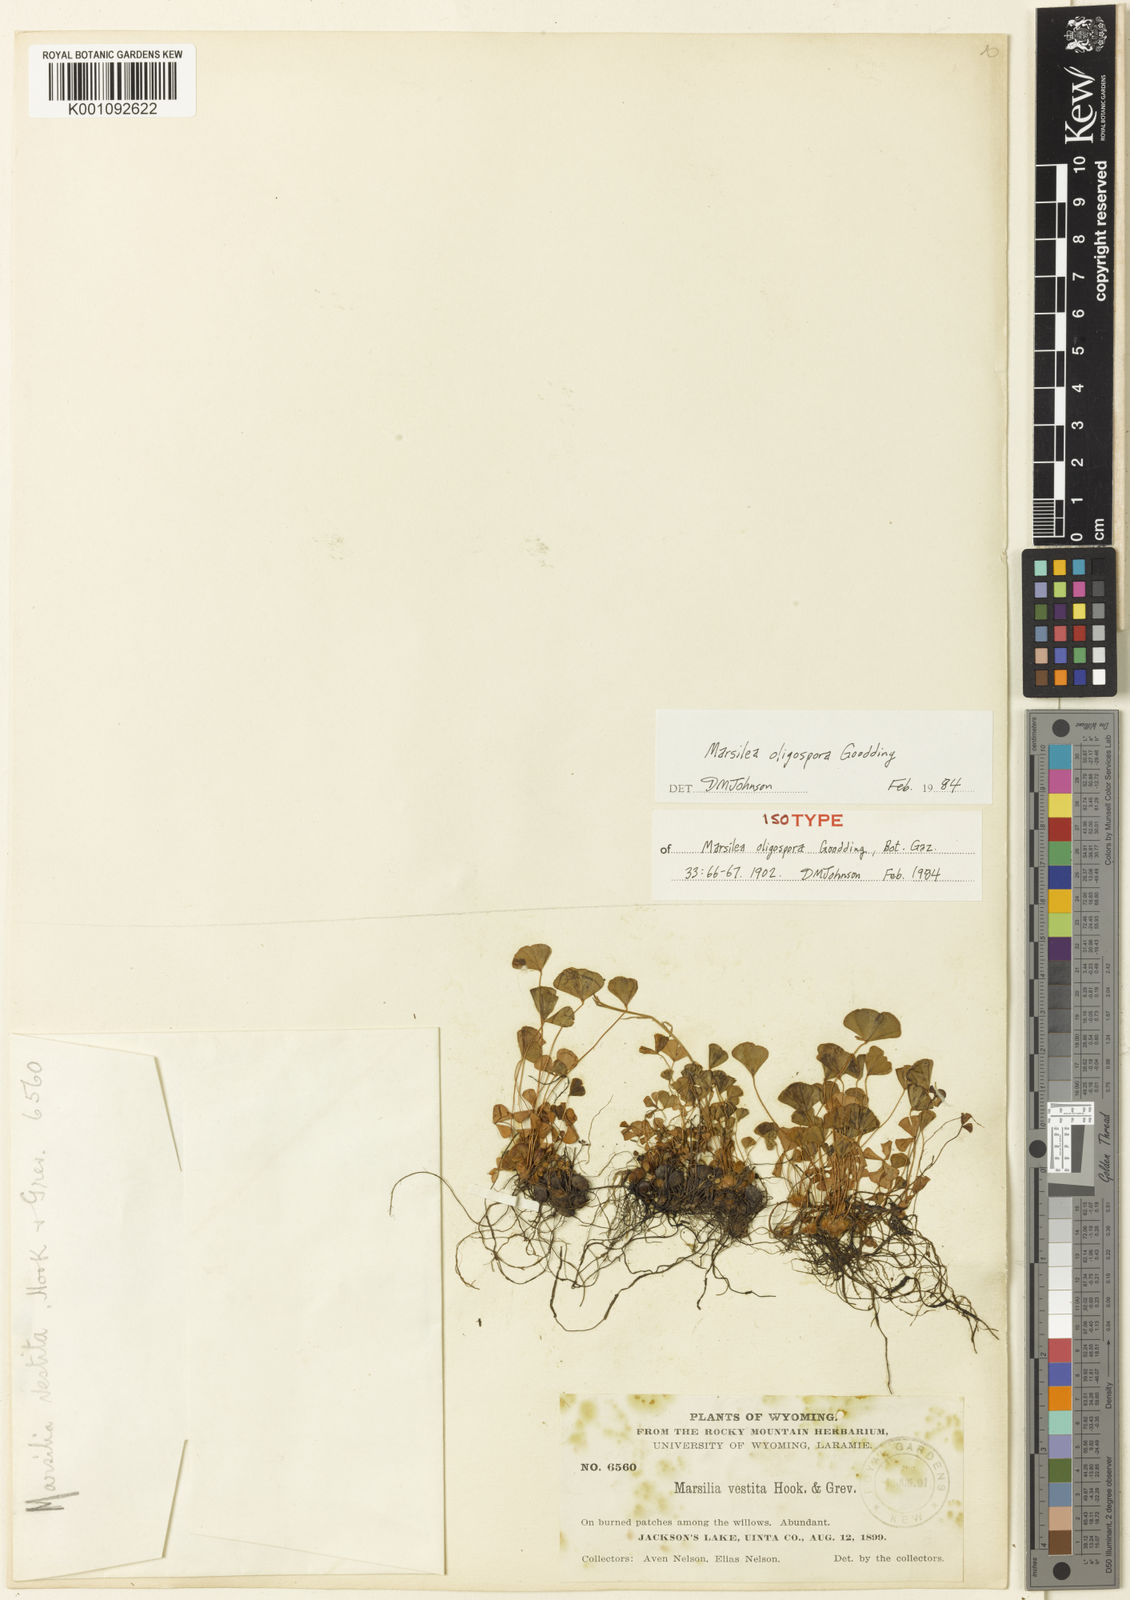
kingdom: Plantae
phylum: Tracheophyta
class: Polypodiopsida
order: Salviniales
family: Marsileaceae
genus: Marsilea
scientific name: Marsilea oligospora
